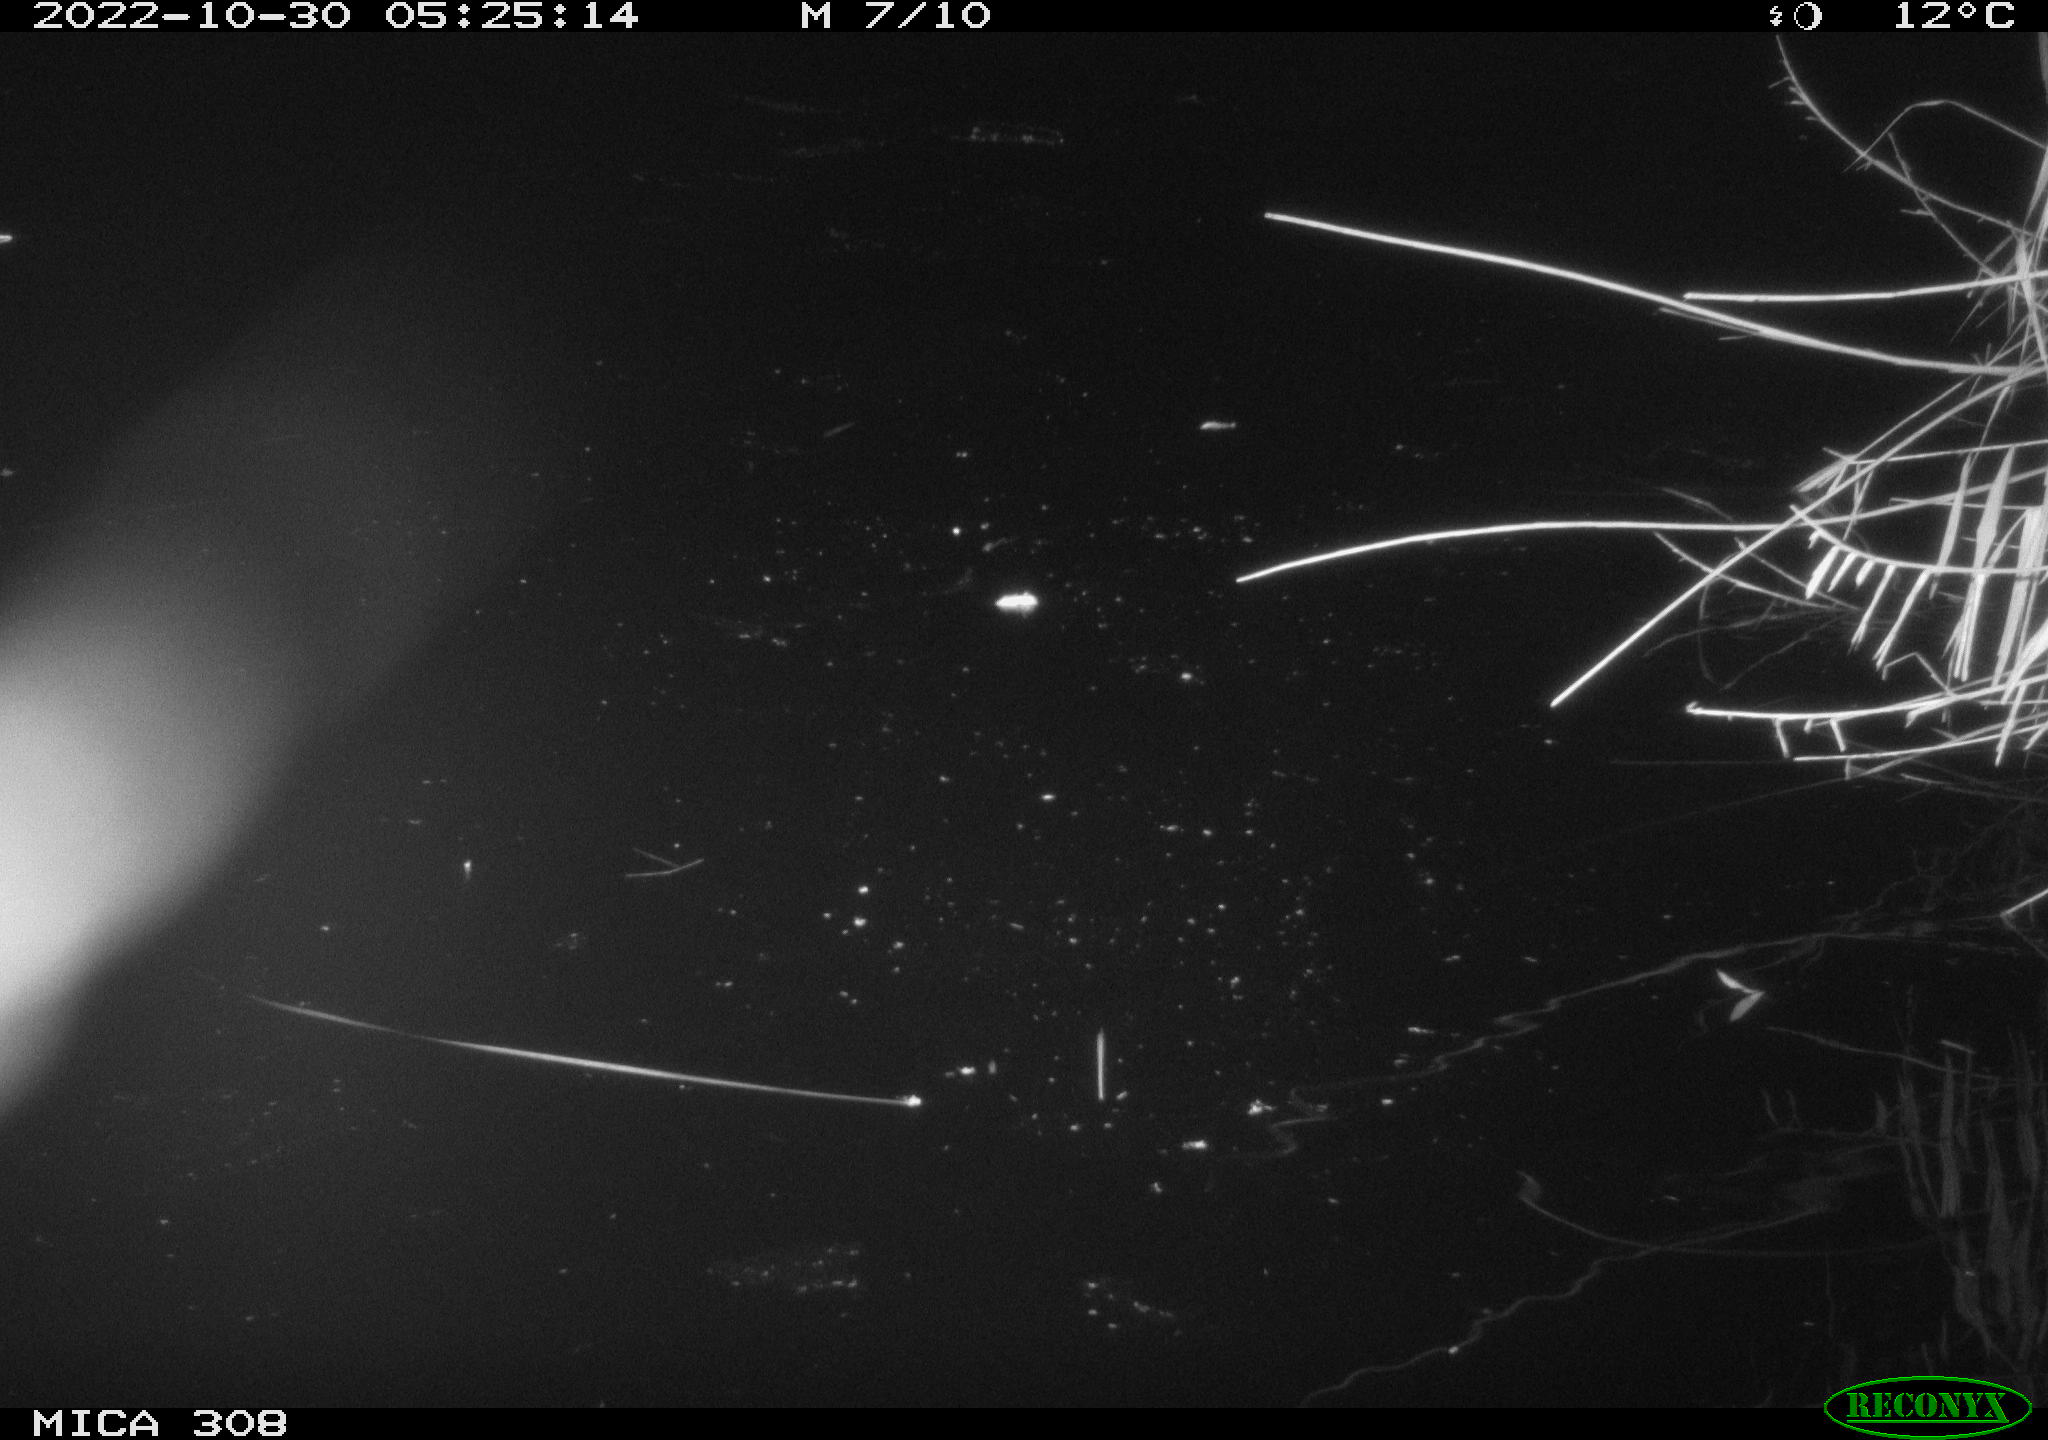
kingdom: Animalia
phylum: Chordata
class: Mammalia
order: Rodentia
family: Muridae
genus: Rattus
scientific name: Rattus norvegicus
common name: Brown rat
